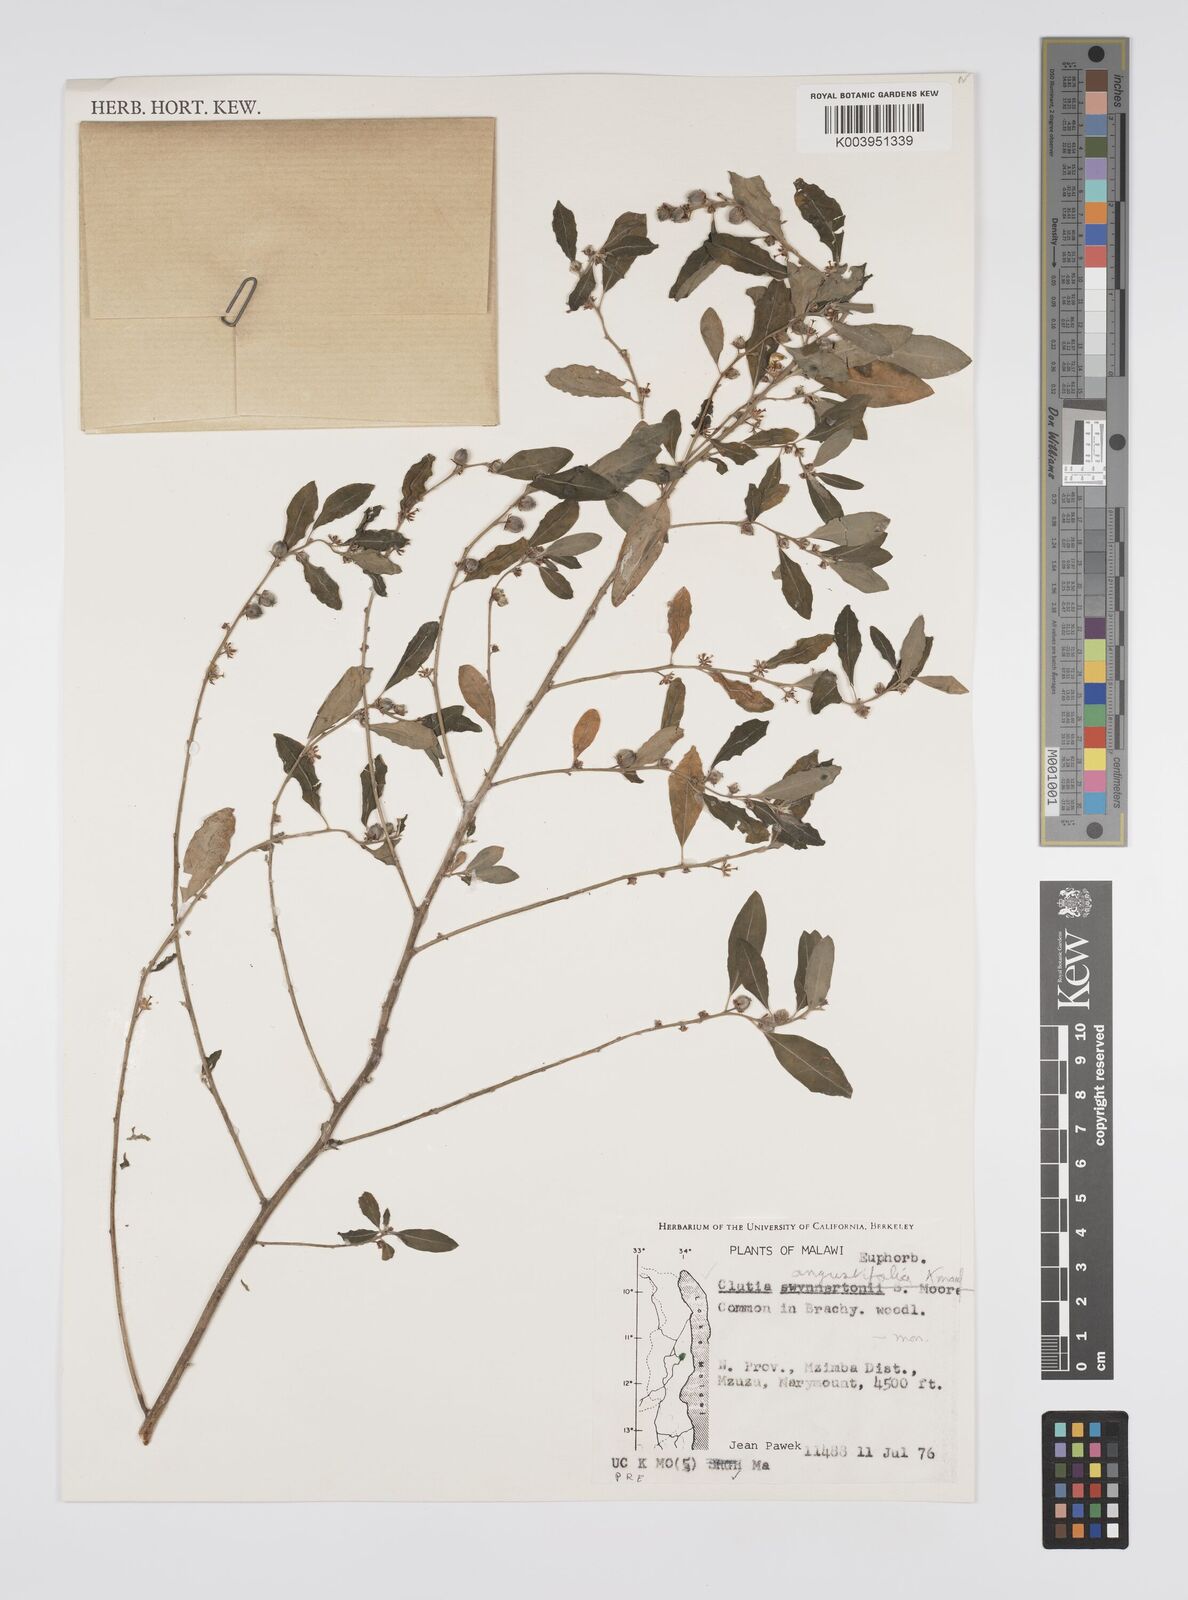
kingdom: Plantae
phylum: Tracheophyta
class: Magnoliopsida
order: Malpighiales
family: Peraceae
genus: Clutia
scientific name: Clutia angustifolia
